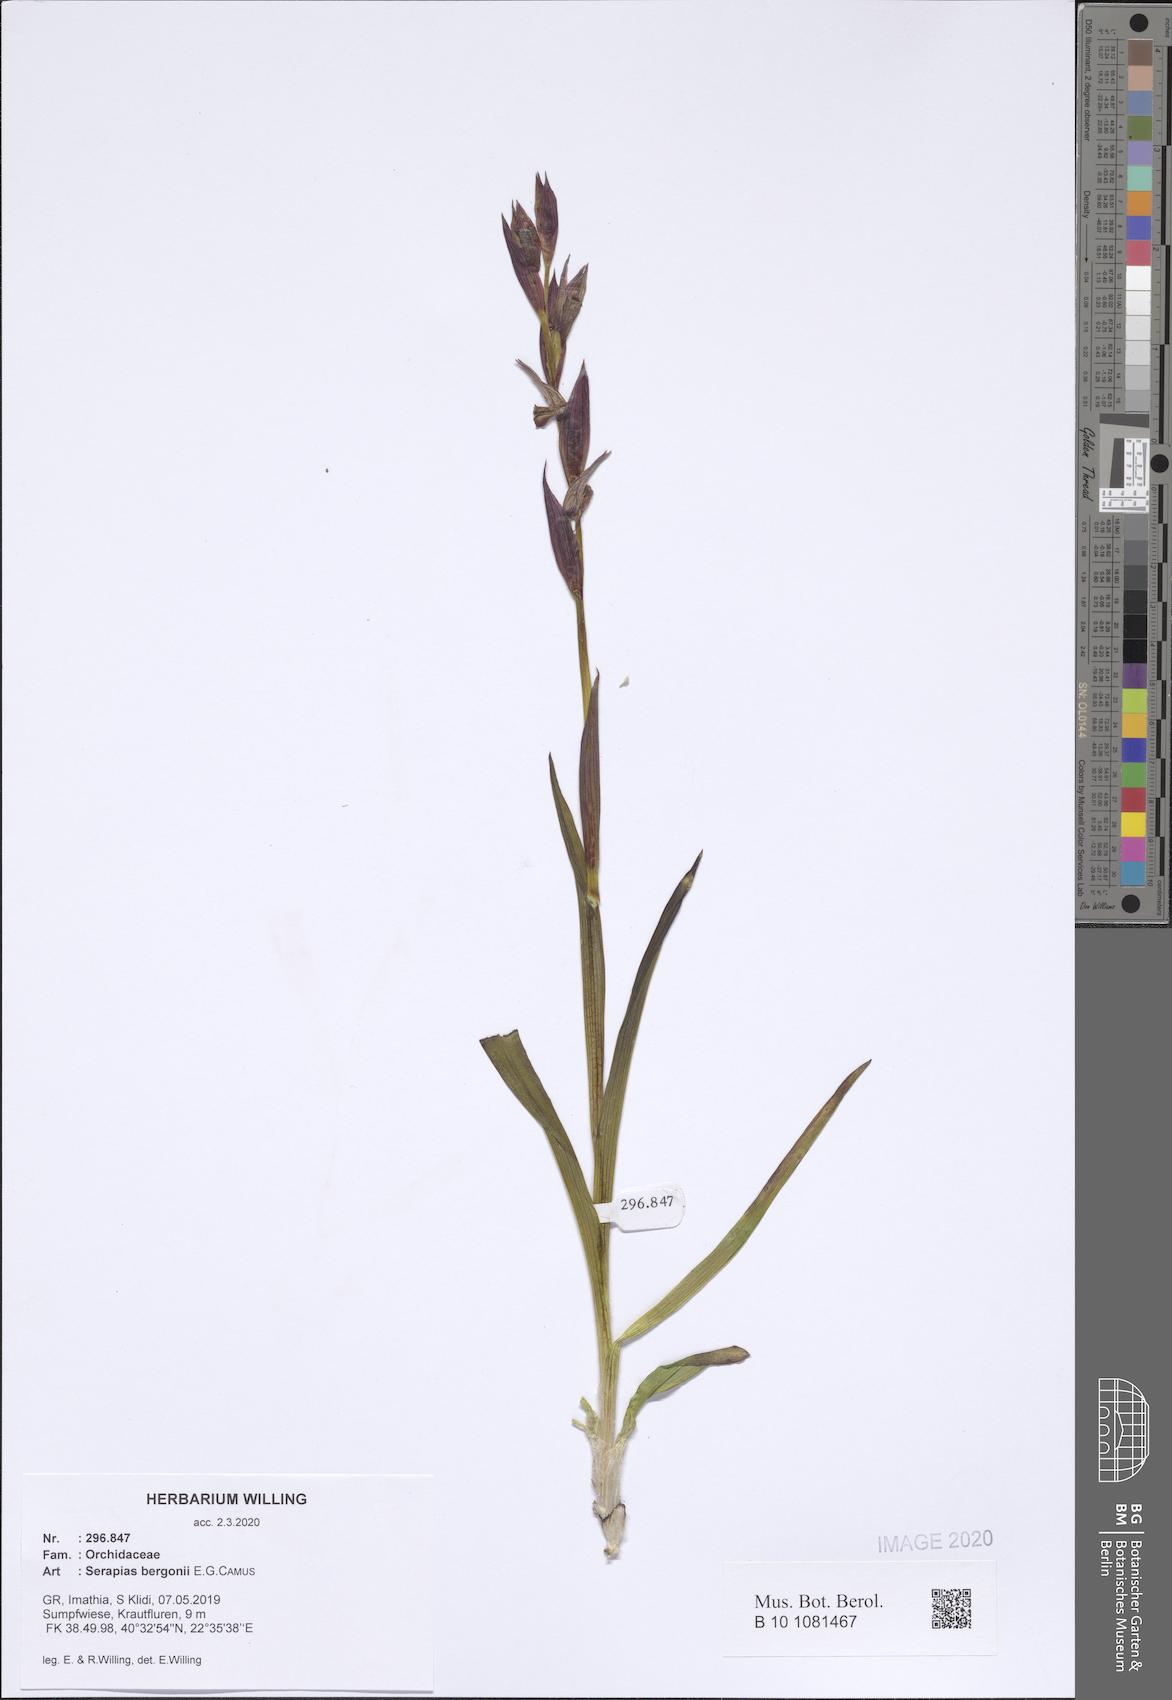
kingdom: Plantae
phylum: Tracheophyta
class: Liliopsida
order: Asparagales
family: Orchidaceae
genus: Serapias
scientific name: Serapias bergonii
